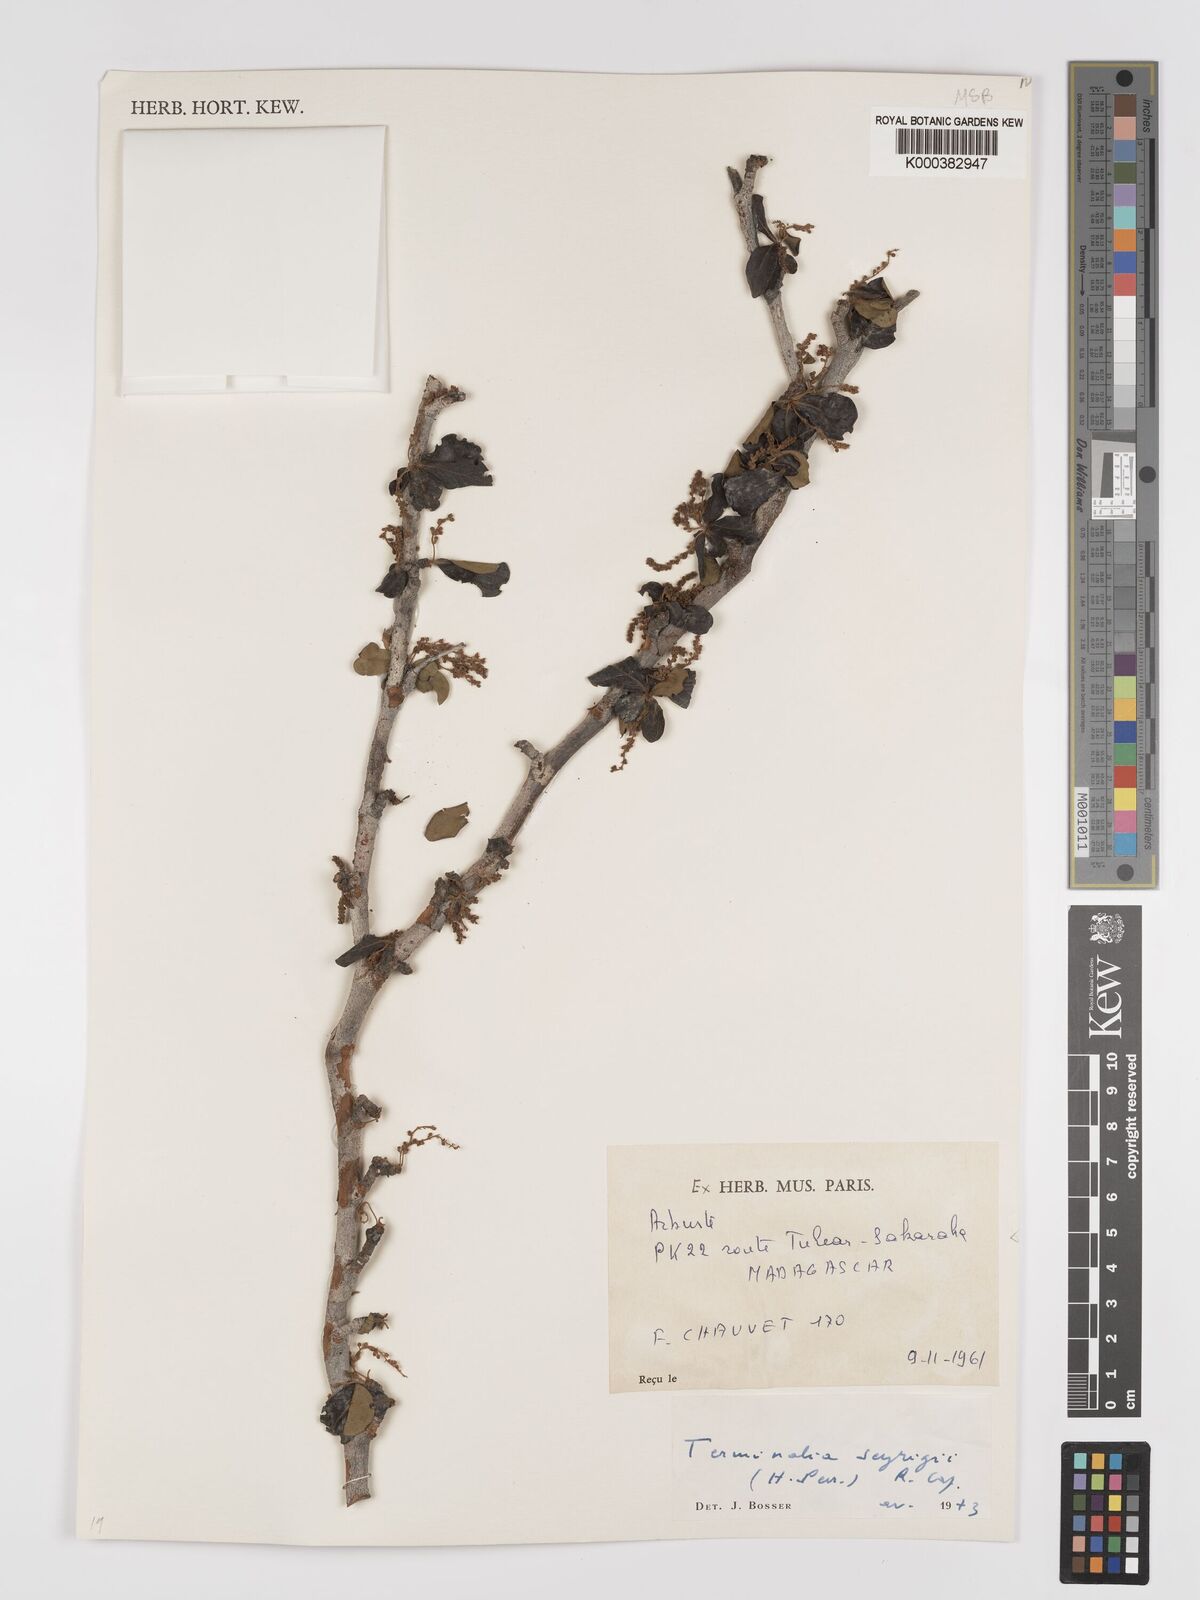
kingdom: Plantae
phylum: Tracheophyta
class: Magnoliopsida
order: Myrtales
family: Combretaceae
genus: Terminalia
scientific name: Terminalia seyrigii
